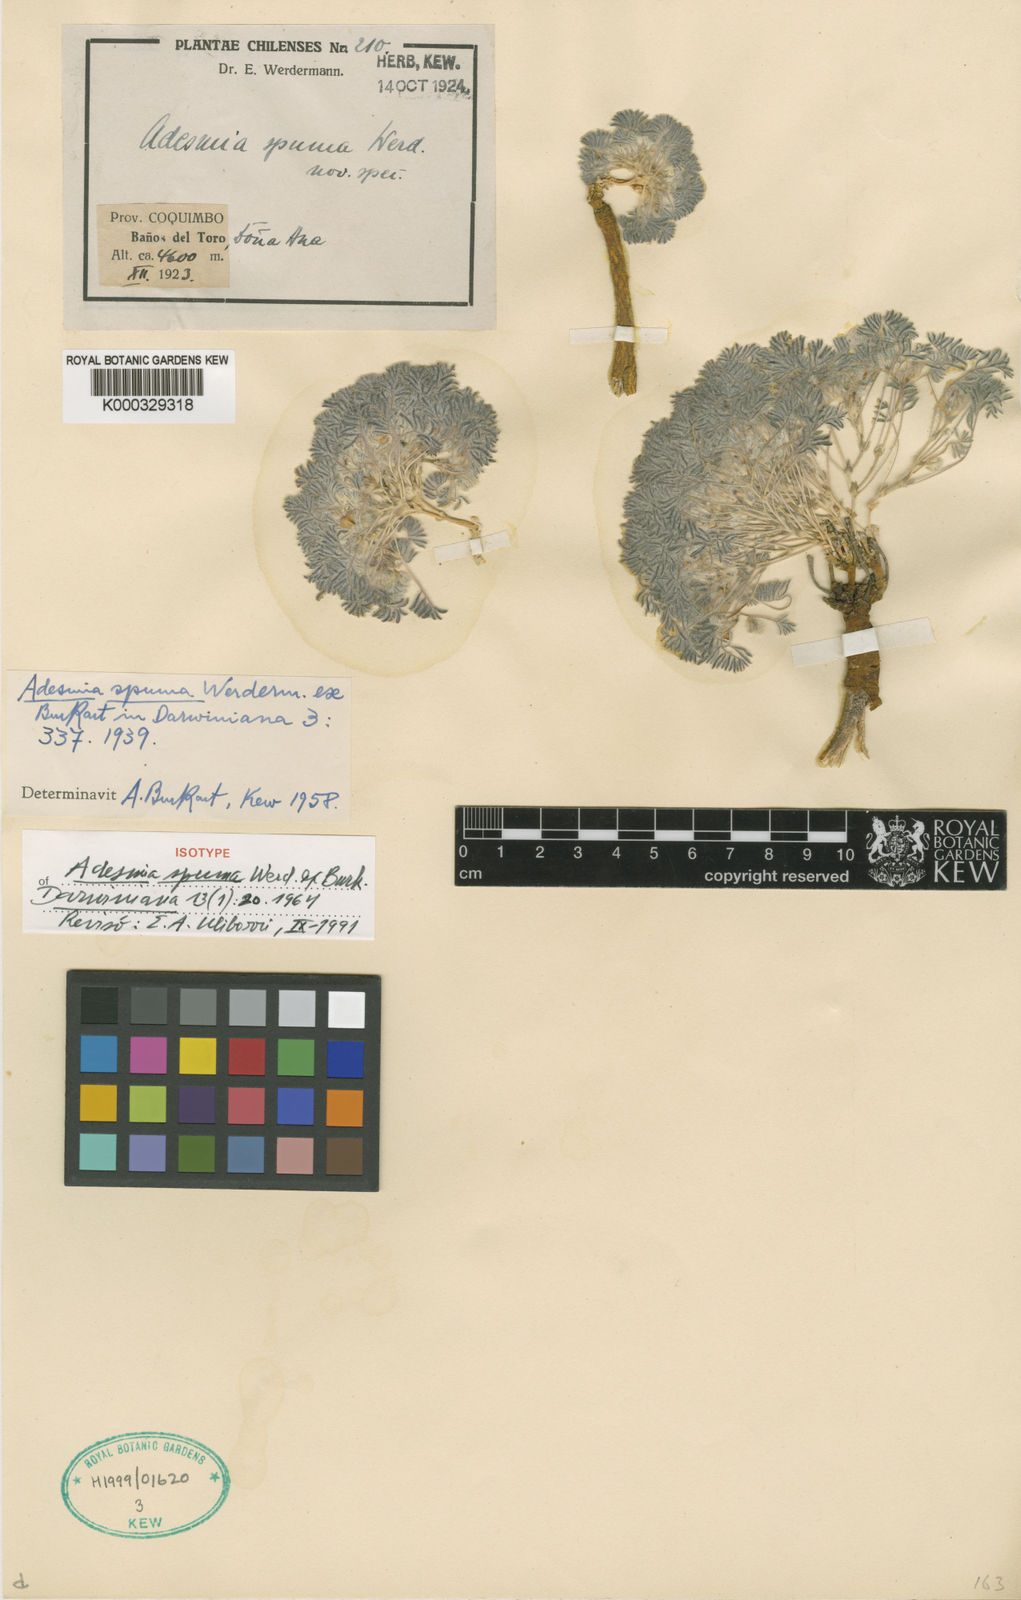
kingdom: Plantae
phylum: Tracheophyta
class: Magnoliopsida
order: Fabales
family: Fabaceae
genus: Adesmia
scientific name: Adesmia spuma
